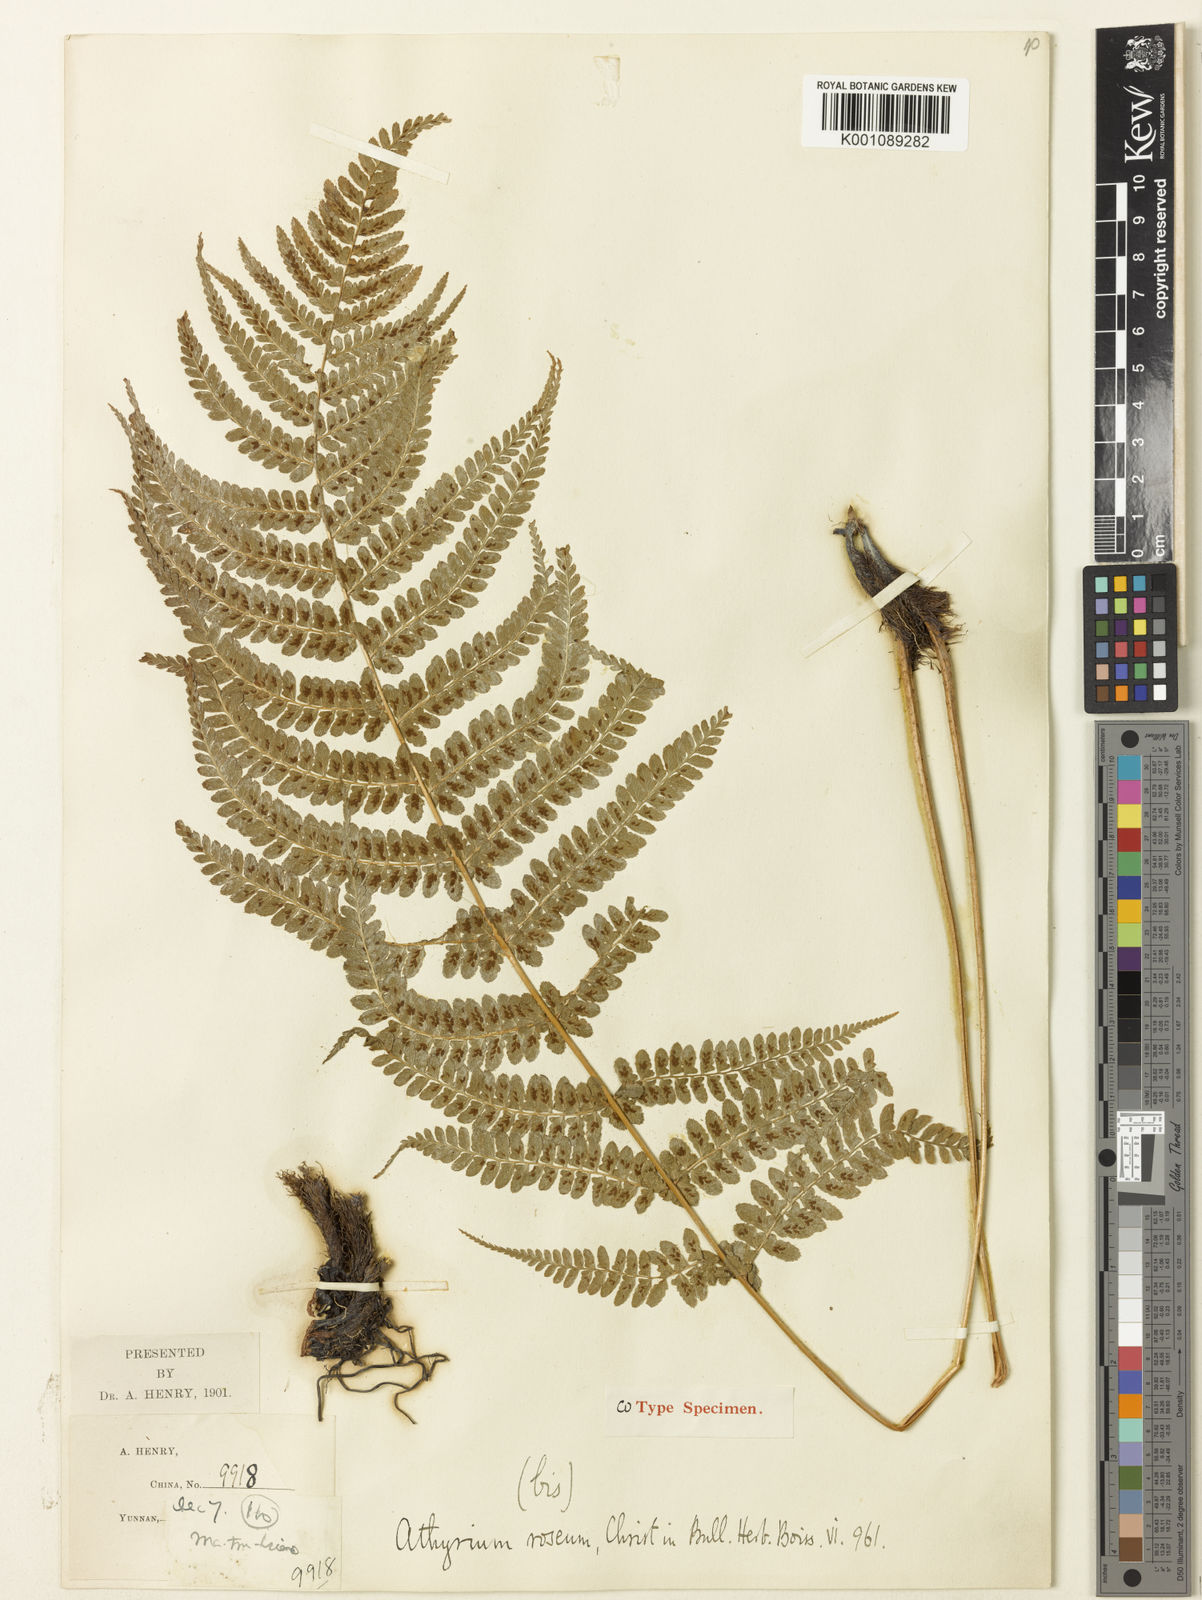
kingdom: Plantae
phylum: Tracheophyta
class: Polypodiopsida
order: Polypodiales
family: Athyriaceae
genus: Athyrium
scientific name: Athyrium roseum
